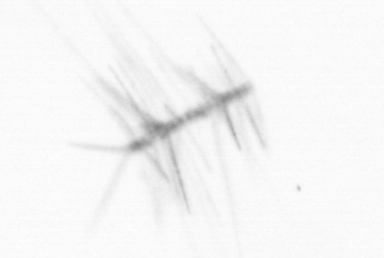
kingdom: Chromista
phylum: Ochrophyta
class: Bacillariophyceae
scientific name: Bacillariophyceae
